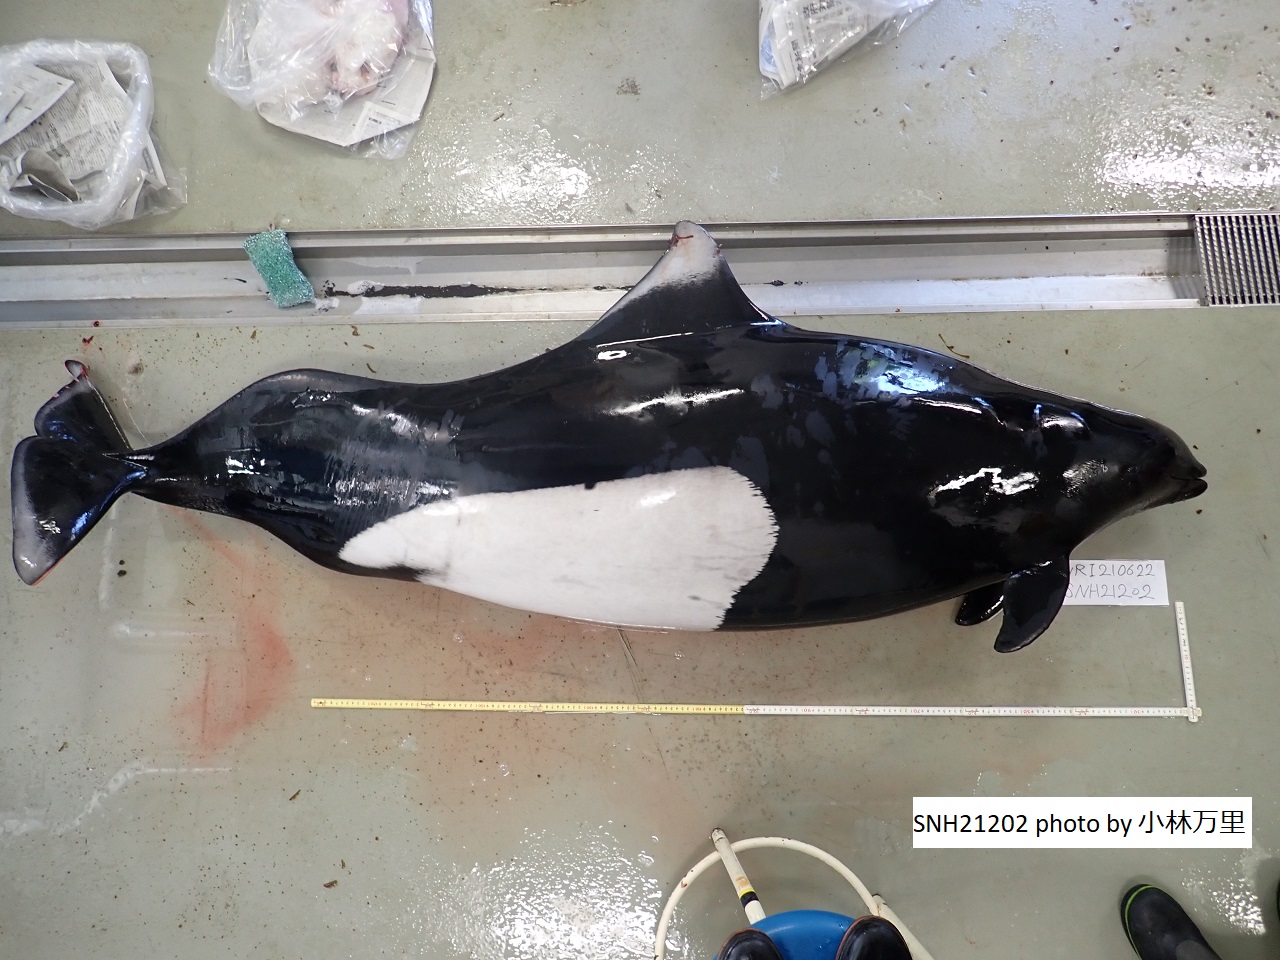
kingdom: Animalia
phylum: Chordata
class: Mammalia
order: Cetacea
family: Phocoenidae
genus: Phocoenoides
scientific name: Phocoenoides dalli
